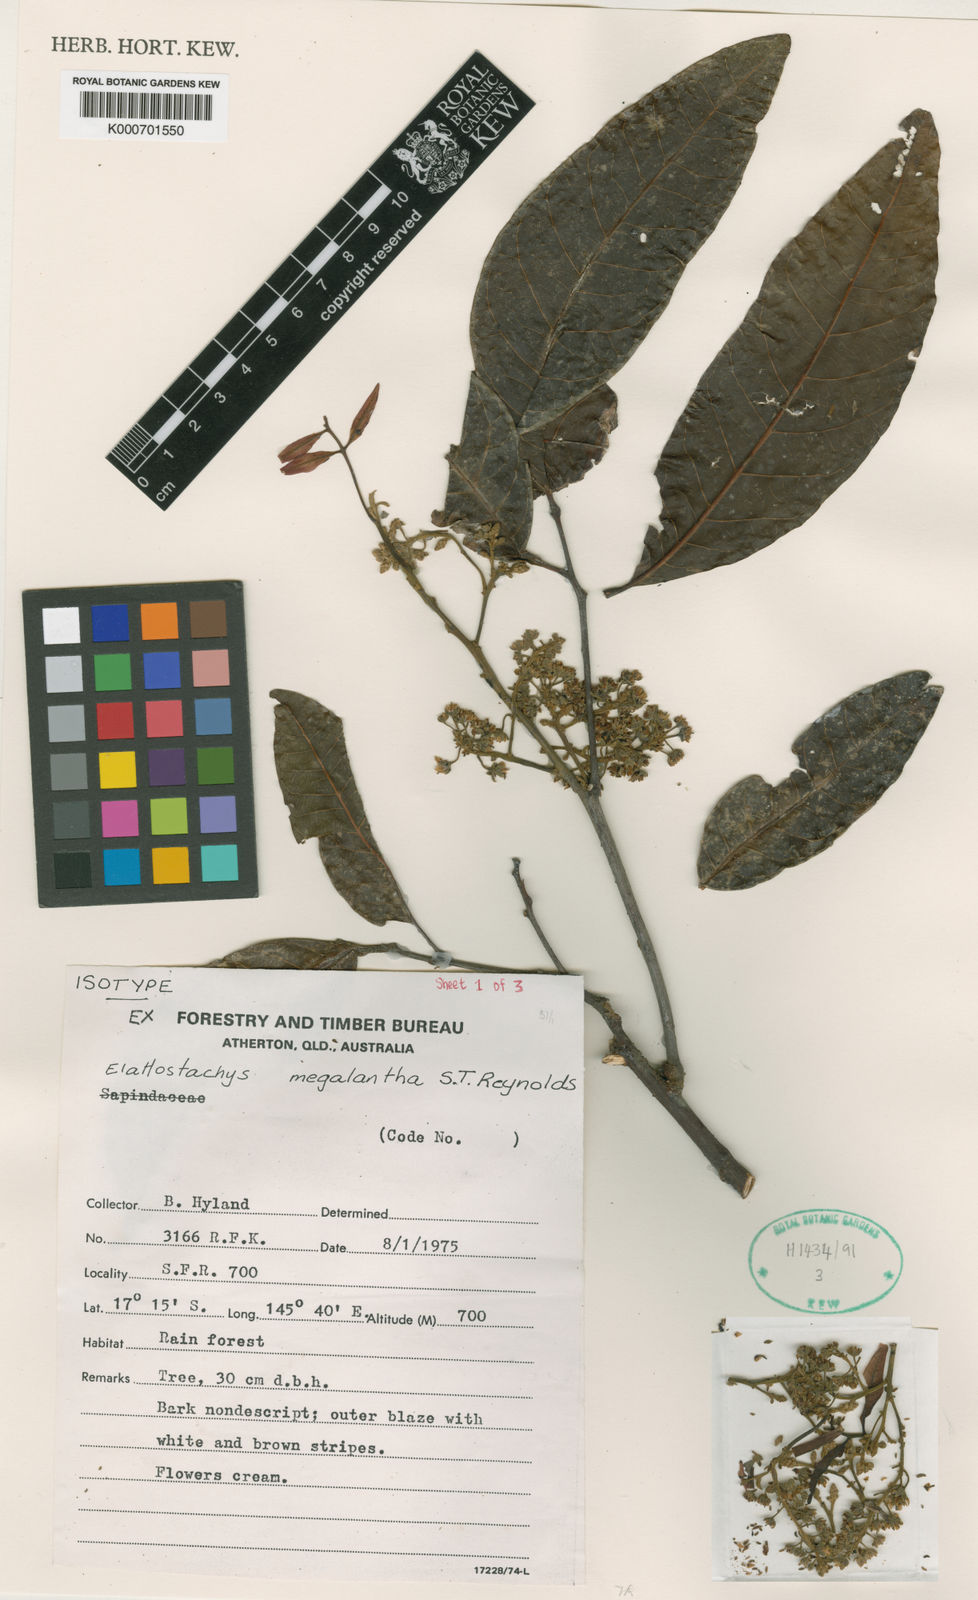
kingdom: Plantae
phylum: Tracheophyta
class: Magnoliopsida
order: Sapindales
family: Sapindaceae
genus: Elattostachys
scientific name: Elattostachys megalantha
